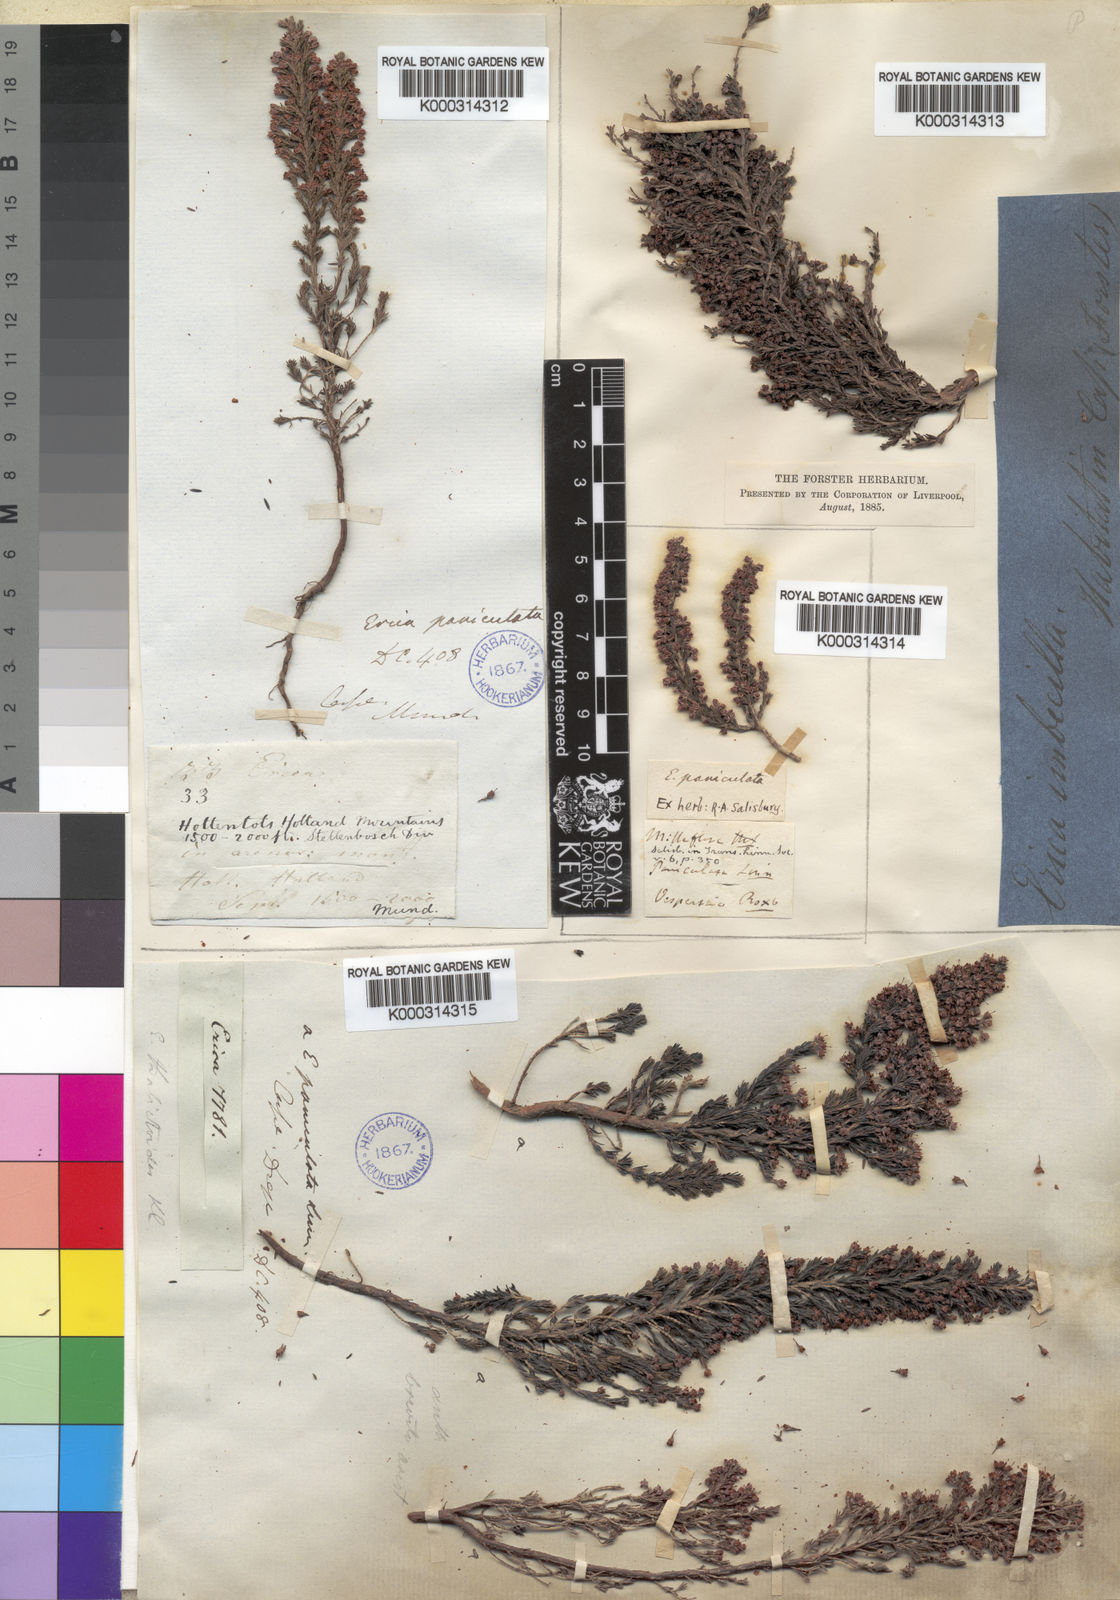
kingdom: Plantae
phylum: Tracheophyta
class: Magnoliopsida
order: Ericales
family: Ericaceae
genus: Erica
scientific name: Erica paniculata
